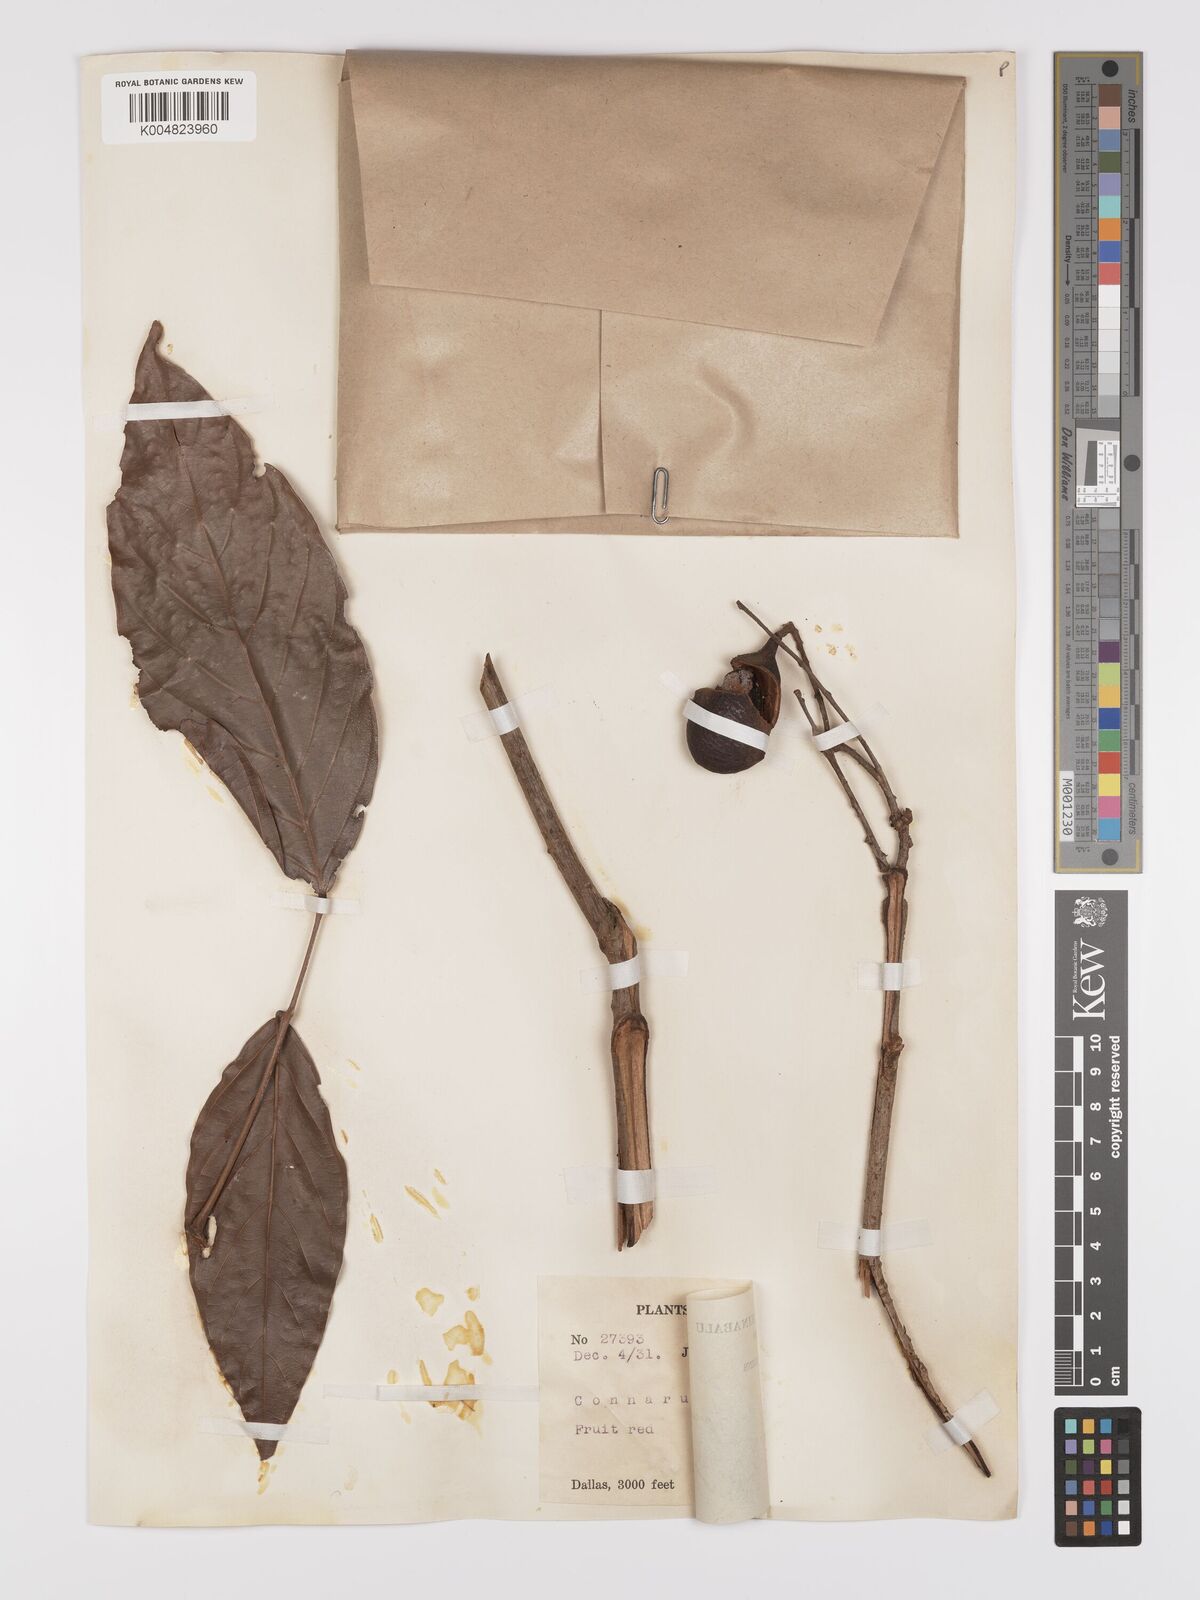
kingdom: Plantae
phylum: Tracheophyta
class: Magnoliopsida
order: Oxalidales
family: Connaraceae
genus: Connarus
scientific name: Connarus semidecandrus
